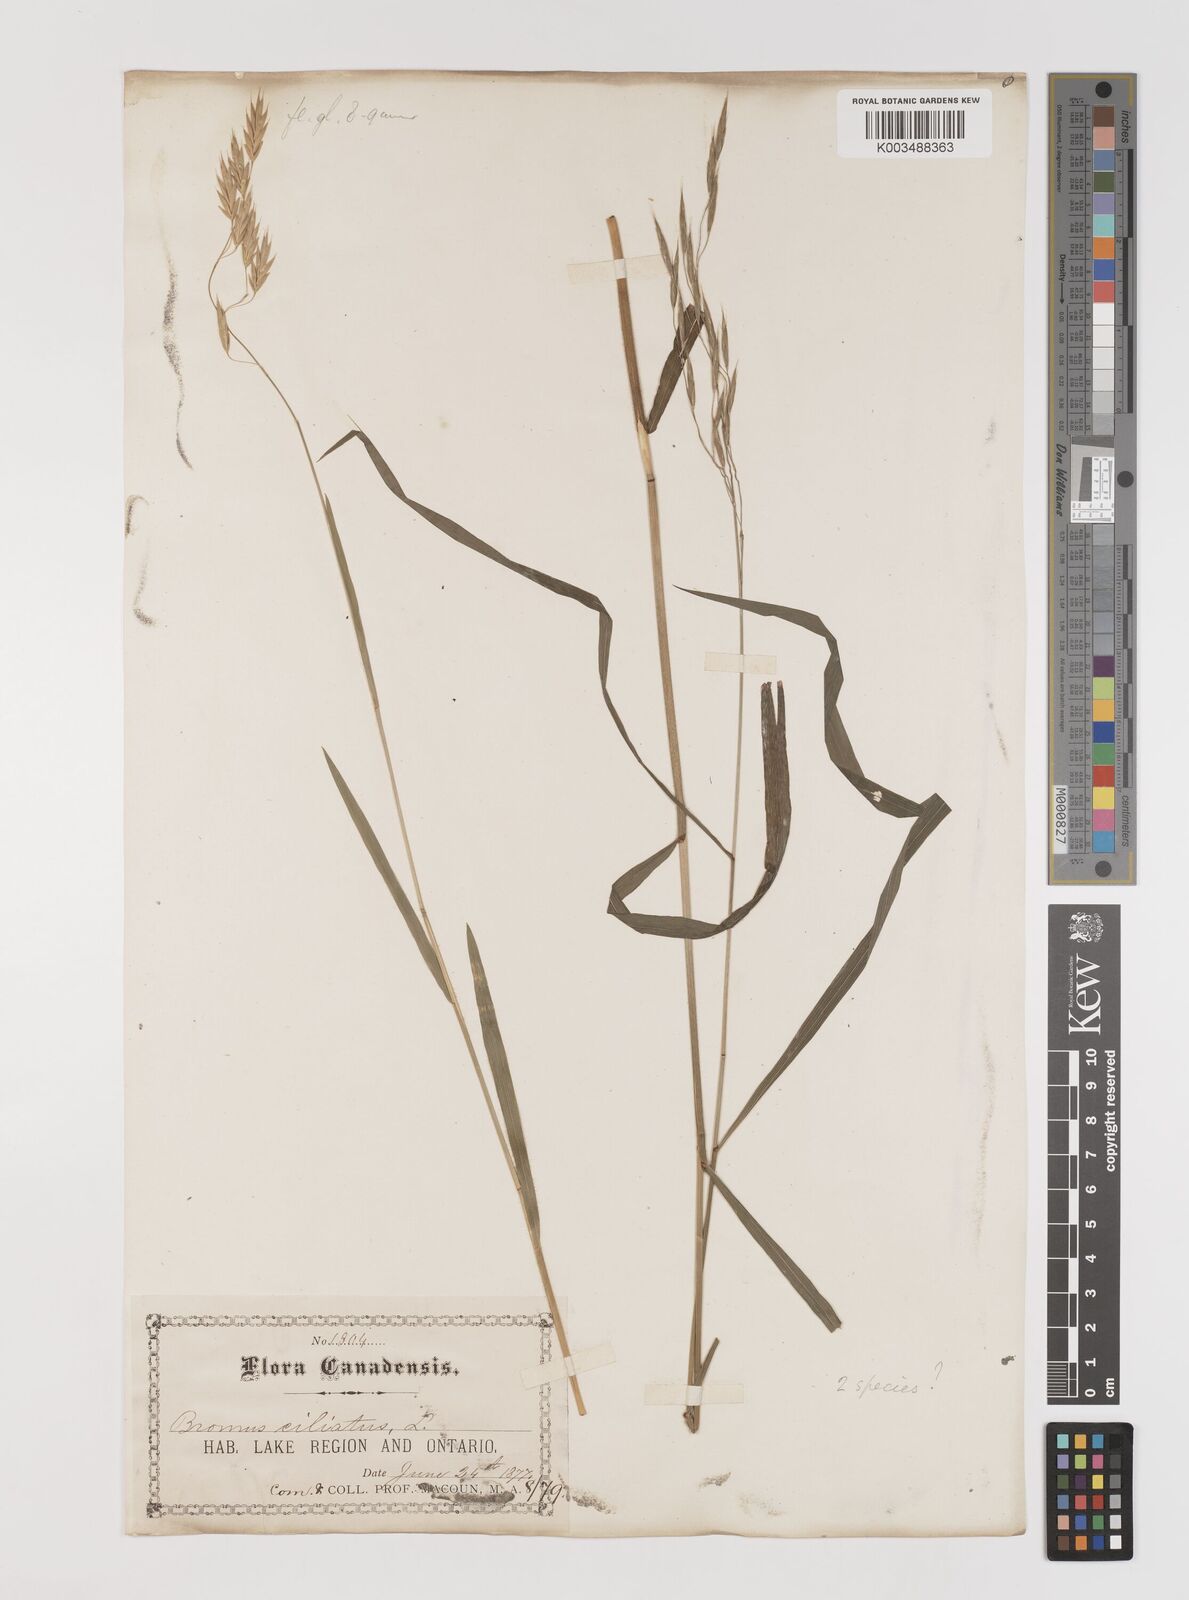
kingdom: Plantae
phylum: Tracheophyta
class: Liliopsida
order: Poales
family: Poaceae
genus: Bromus
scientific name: Bromus ciliatus
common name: Fringe brome
